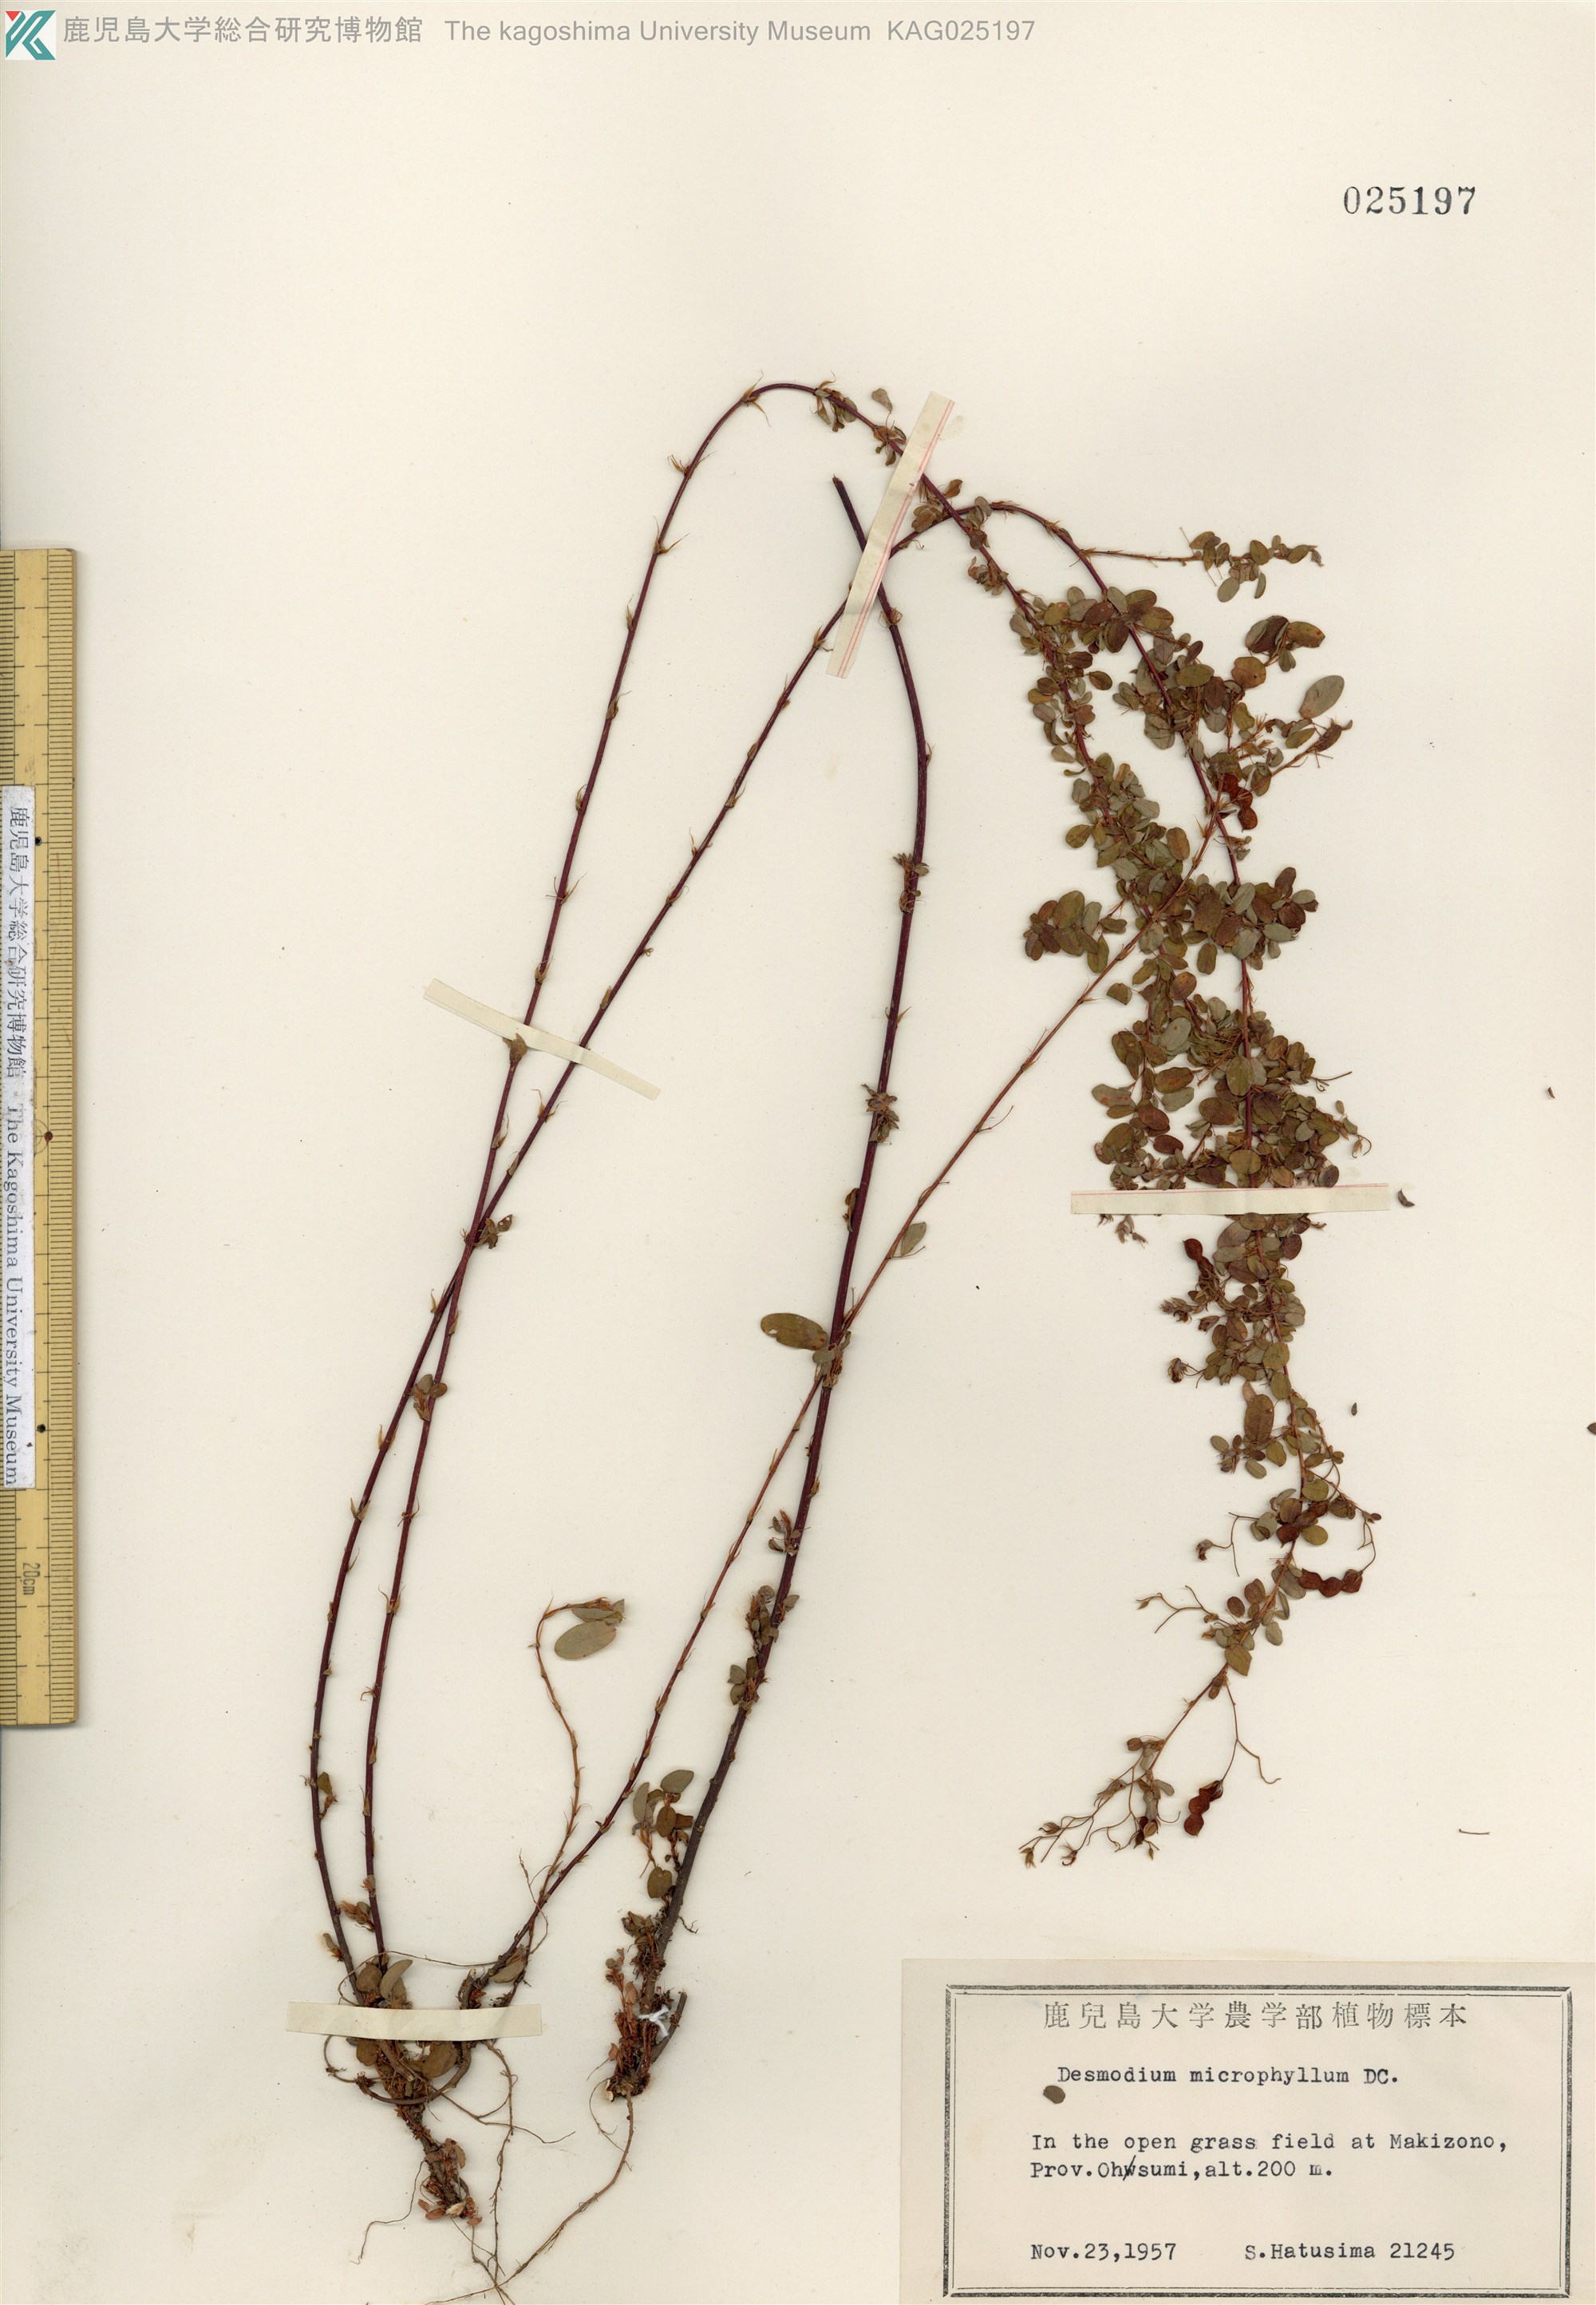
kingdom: Plantae
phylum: Tracheophyta
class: Magnoliopsida
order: Fabales
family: Fabaceae
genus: Leptodesmia
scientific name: Leptodesmia microphylla
